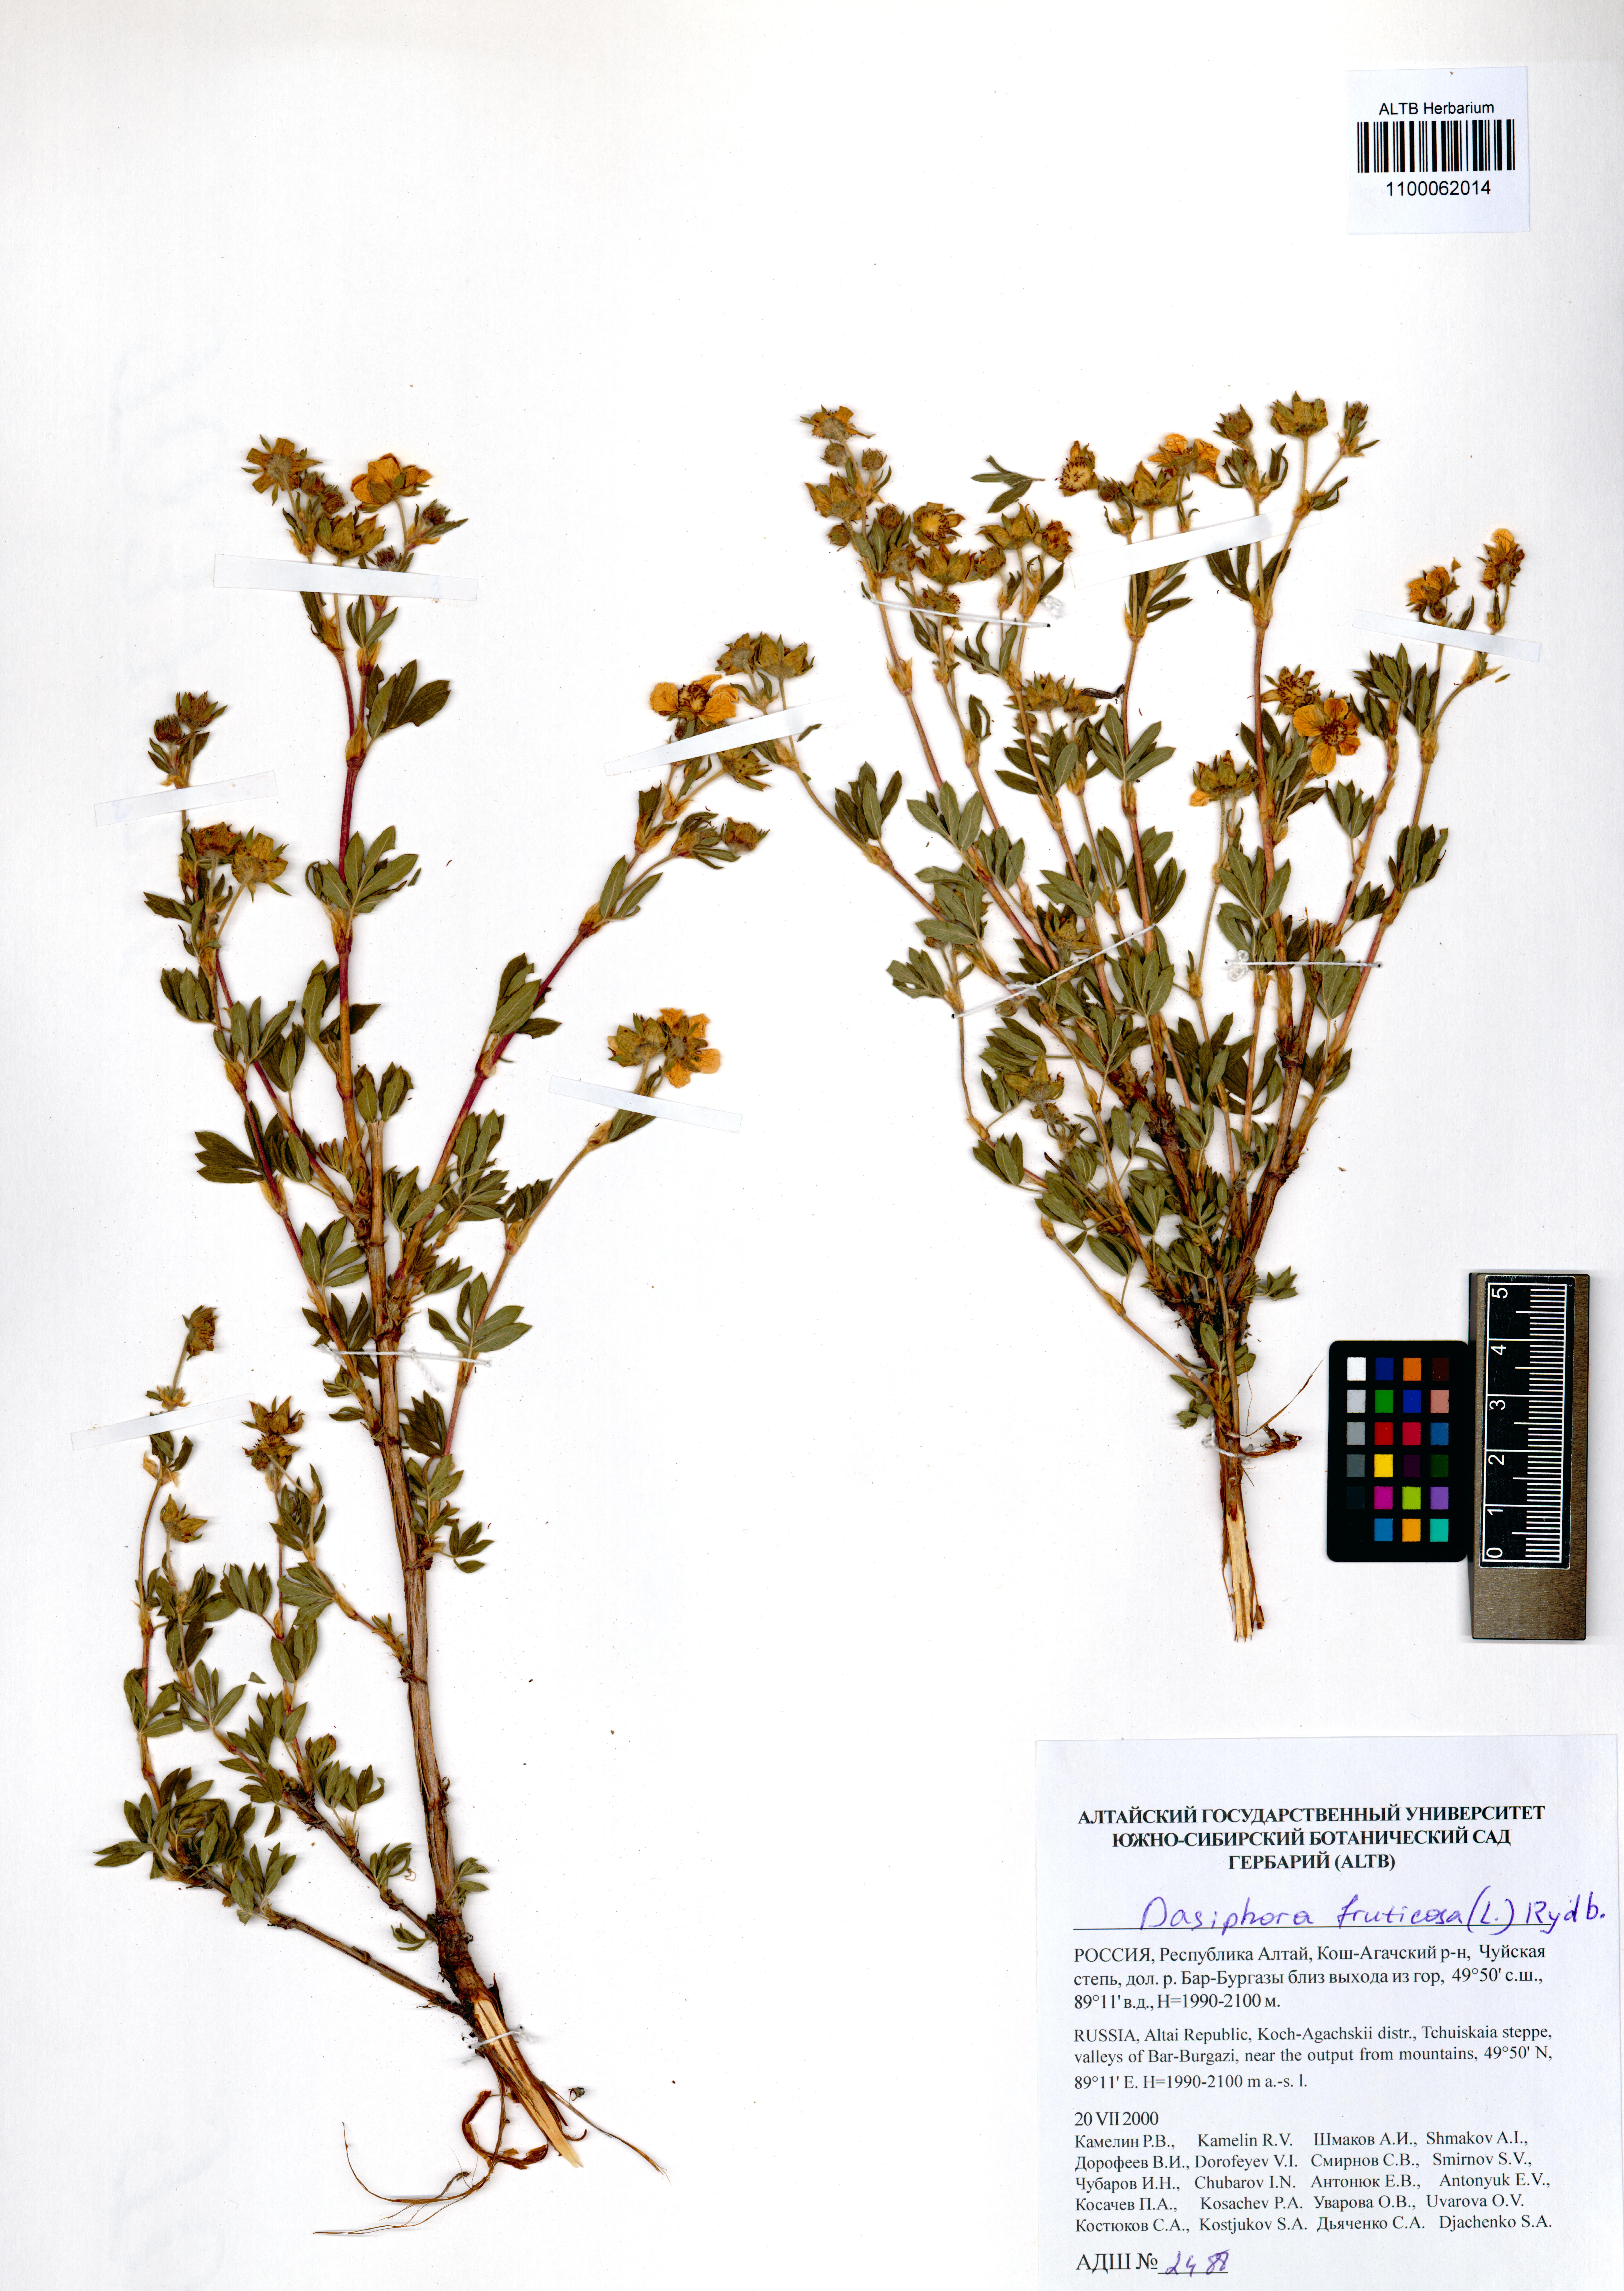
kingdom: Plantae
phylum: Tracheophyta
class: Magnoliopsida
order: Rosales
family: Rosaceae
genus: Dasiphora
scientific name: Dasiphora fruticosa
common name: Shrubby cinquefoil
